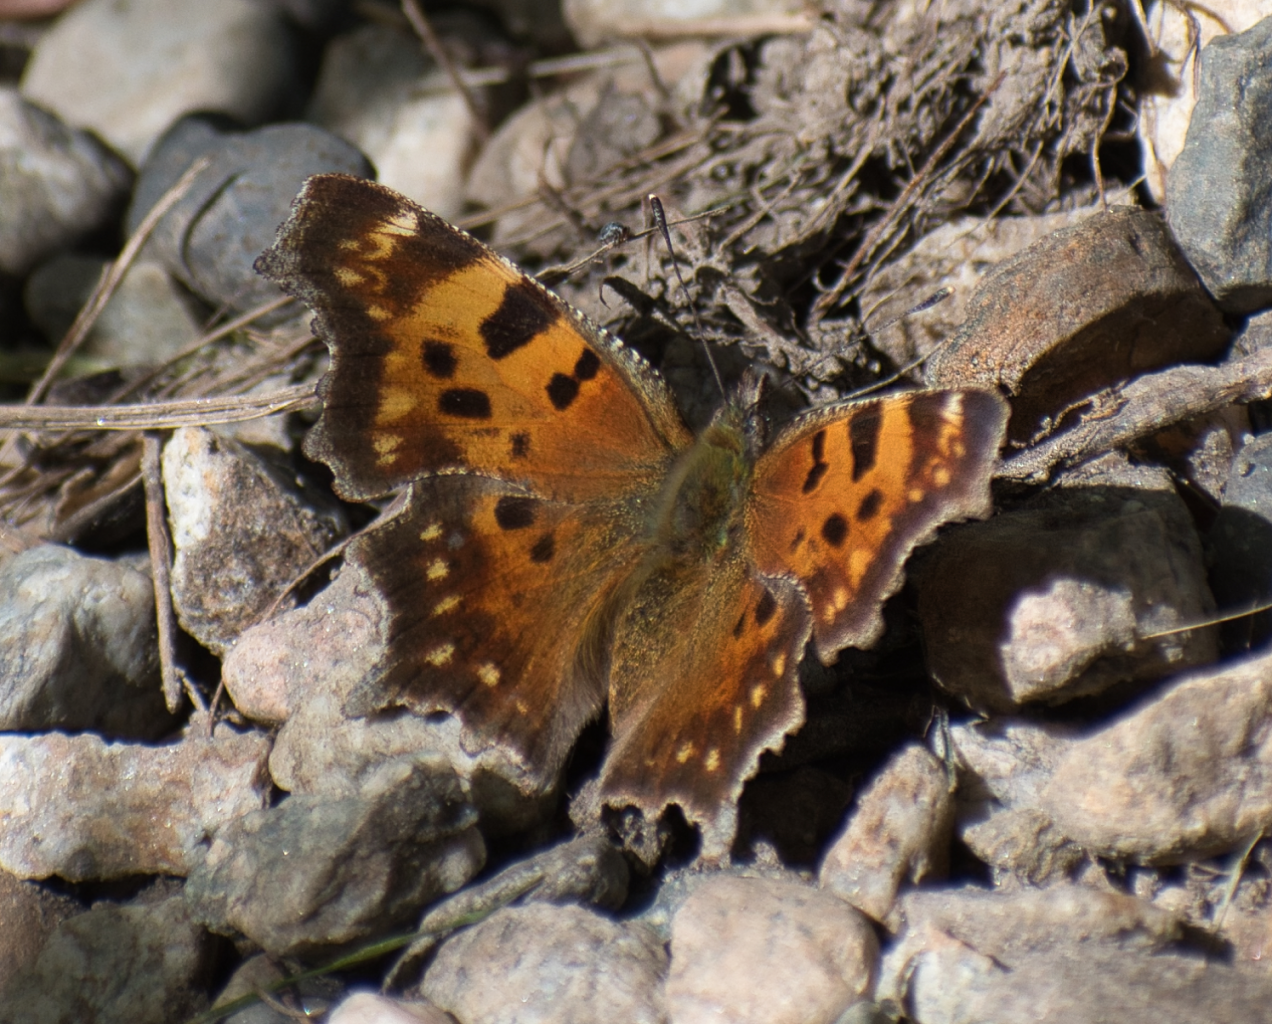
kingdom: Animalia
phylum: Arthropoda
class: Insecta
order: Lepidoptera
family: Nymphalidae
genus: Polygonia
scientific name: Polygonia faunus
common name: Green Comma
